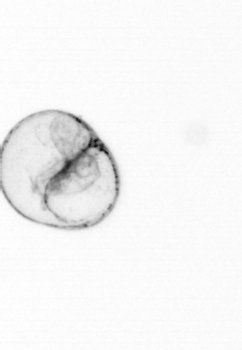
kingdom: Chromista
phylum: Myzozoa
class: Dinophyceae
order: Noctilucales
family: Noctilucaceae
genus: Noctiluca
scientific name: Noctiluca scintillans
